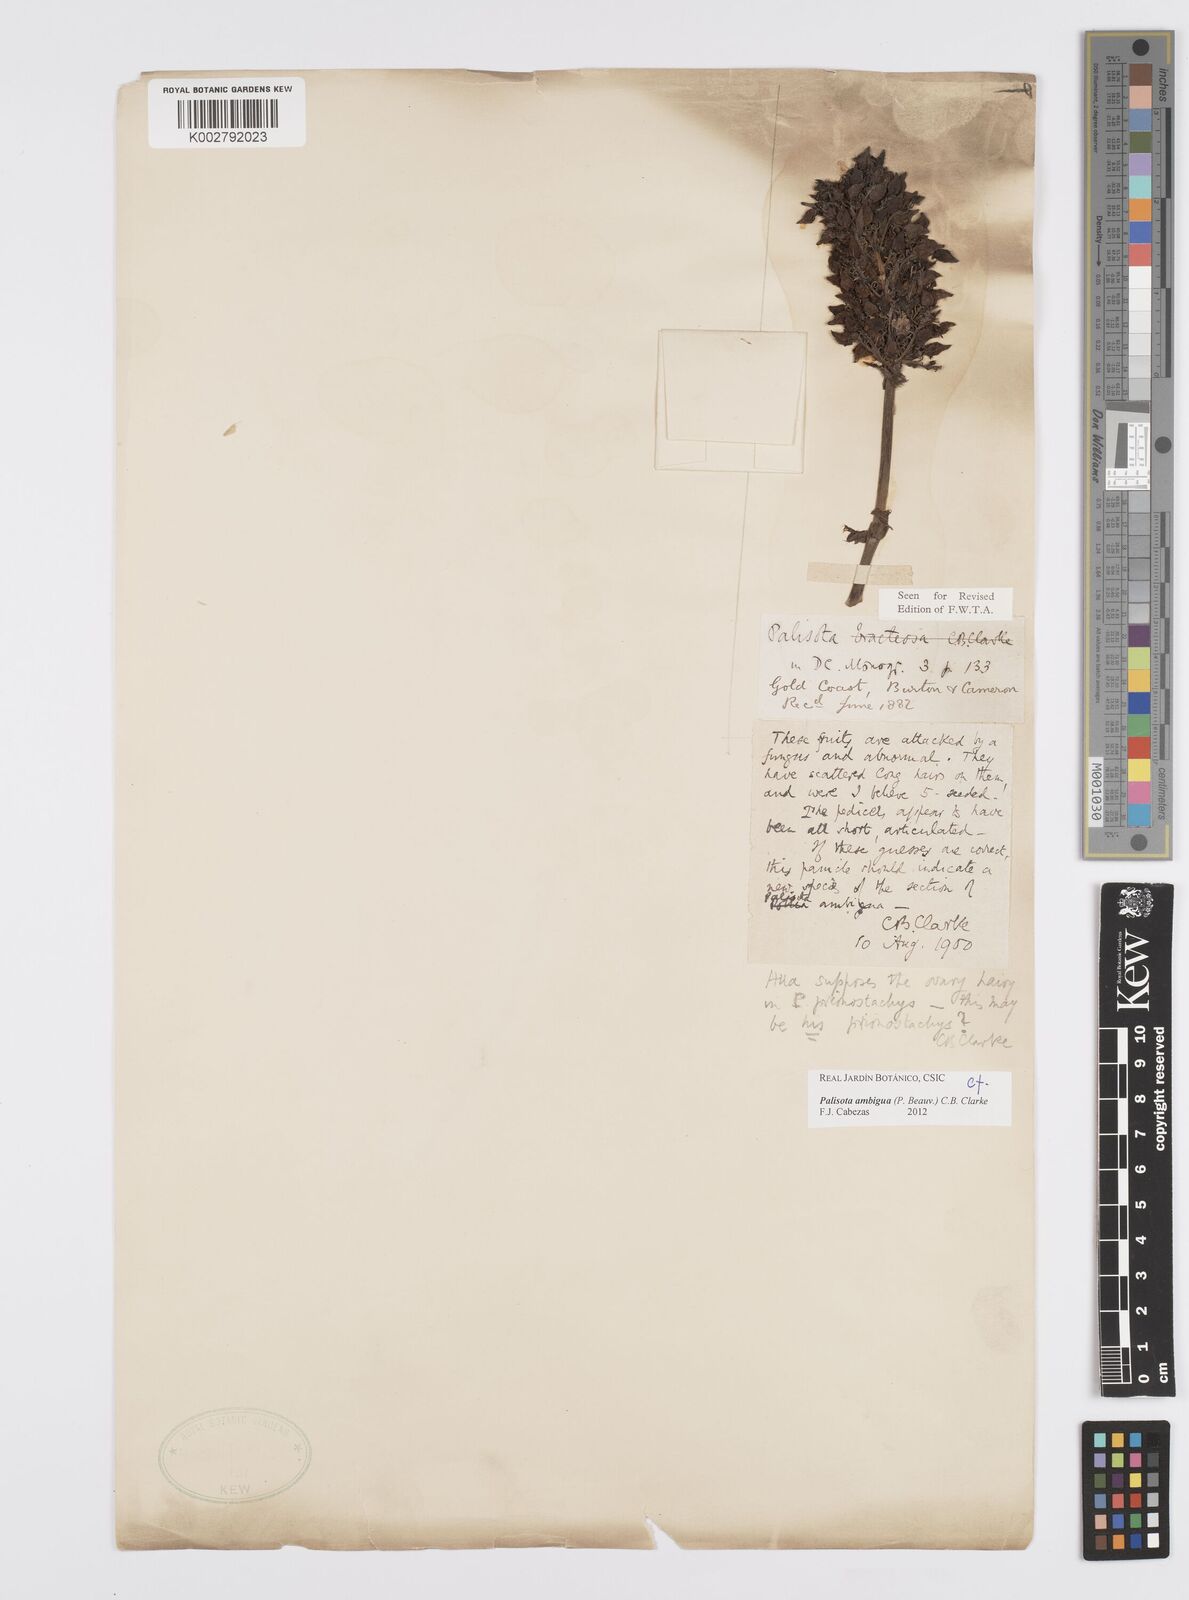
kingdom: Plantae
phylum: Tracheophyta
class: Liliopsida
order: Commelinales
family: Commelinaceae
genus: Palisota
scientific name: Palisota ambigua
